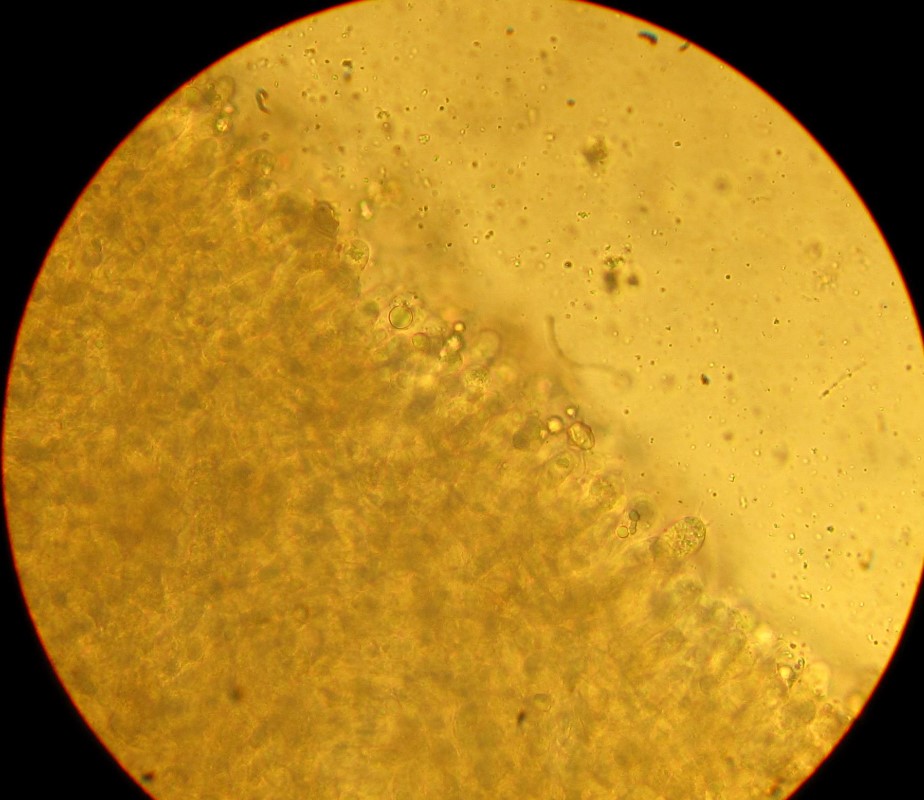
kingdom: Fungi
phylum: Basidiomycota
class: Agaricomycetes
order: Agaricales
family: Entolomataceae
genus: Entoloma
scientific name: Entoloma griseocyaneum
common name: gråblå rødblad
